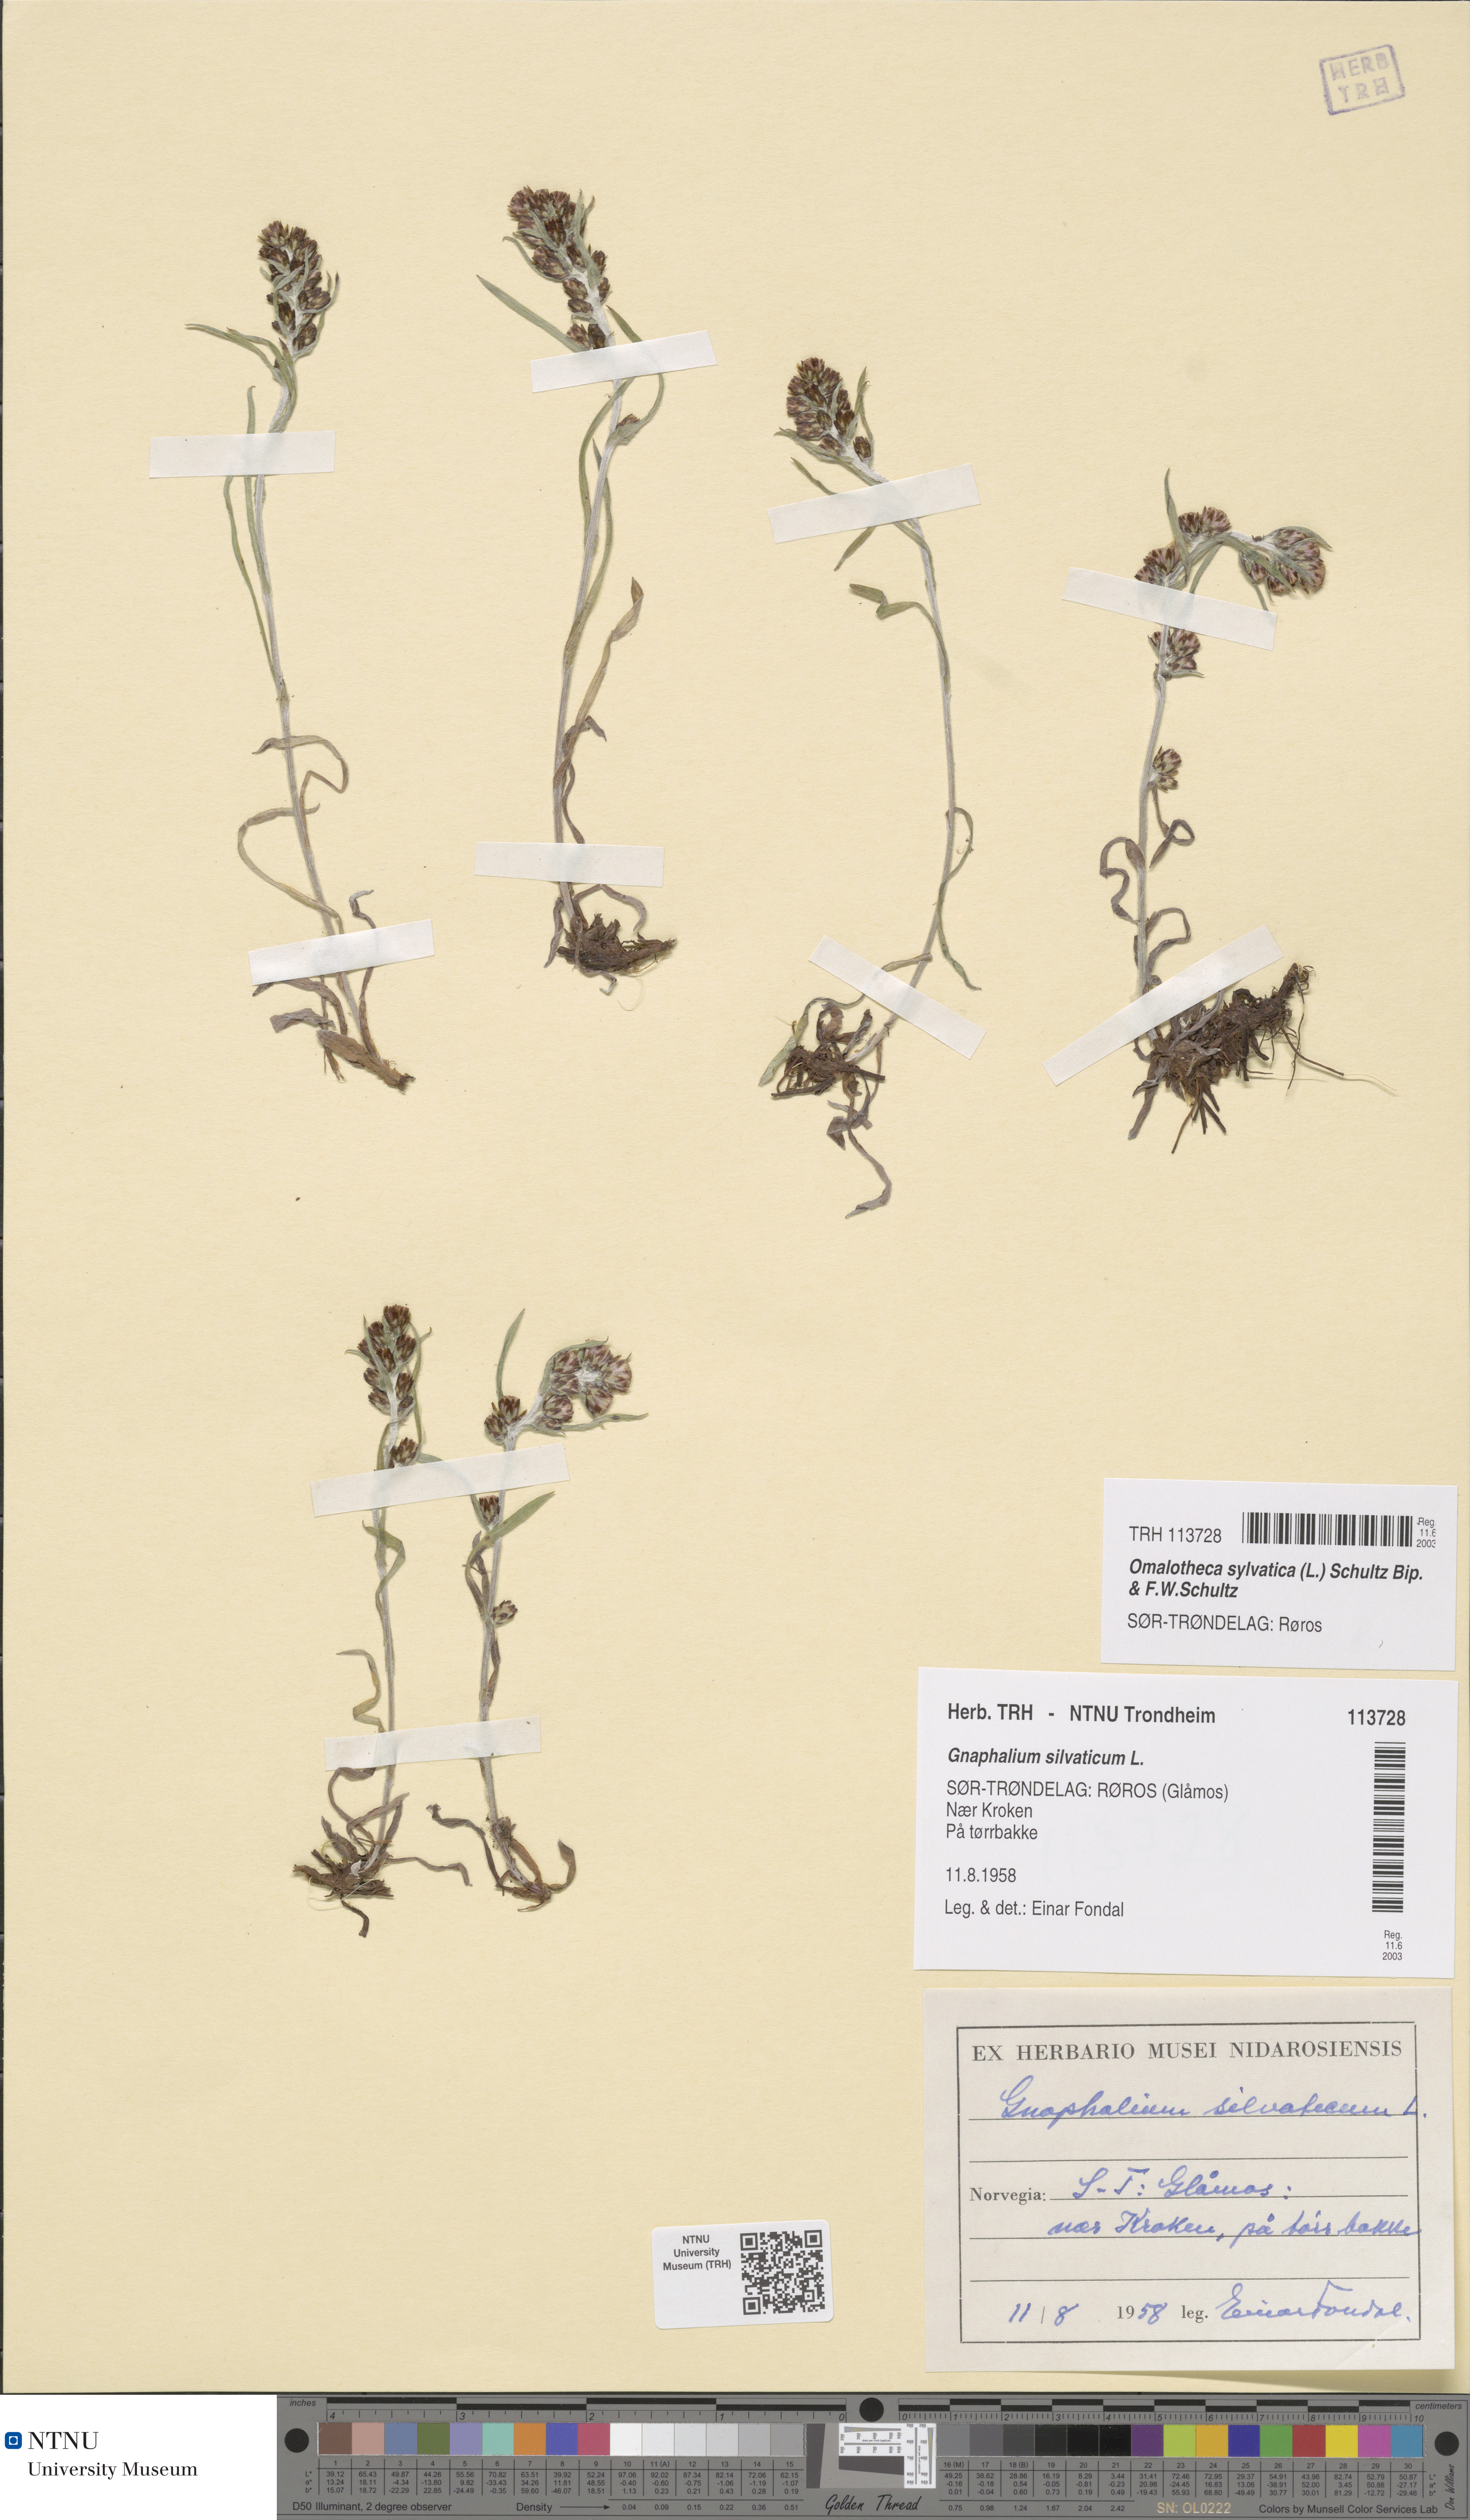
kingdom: Plantae
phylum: Tracheophyta
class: Magnoliopsida
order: Asterales
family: Asteraceae
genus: Omalotheca
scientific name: Omalotheca sylvatica
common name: Heath cudweed
